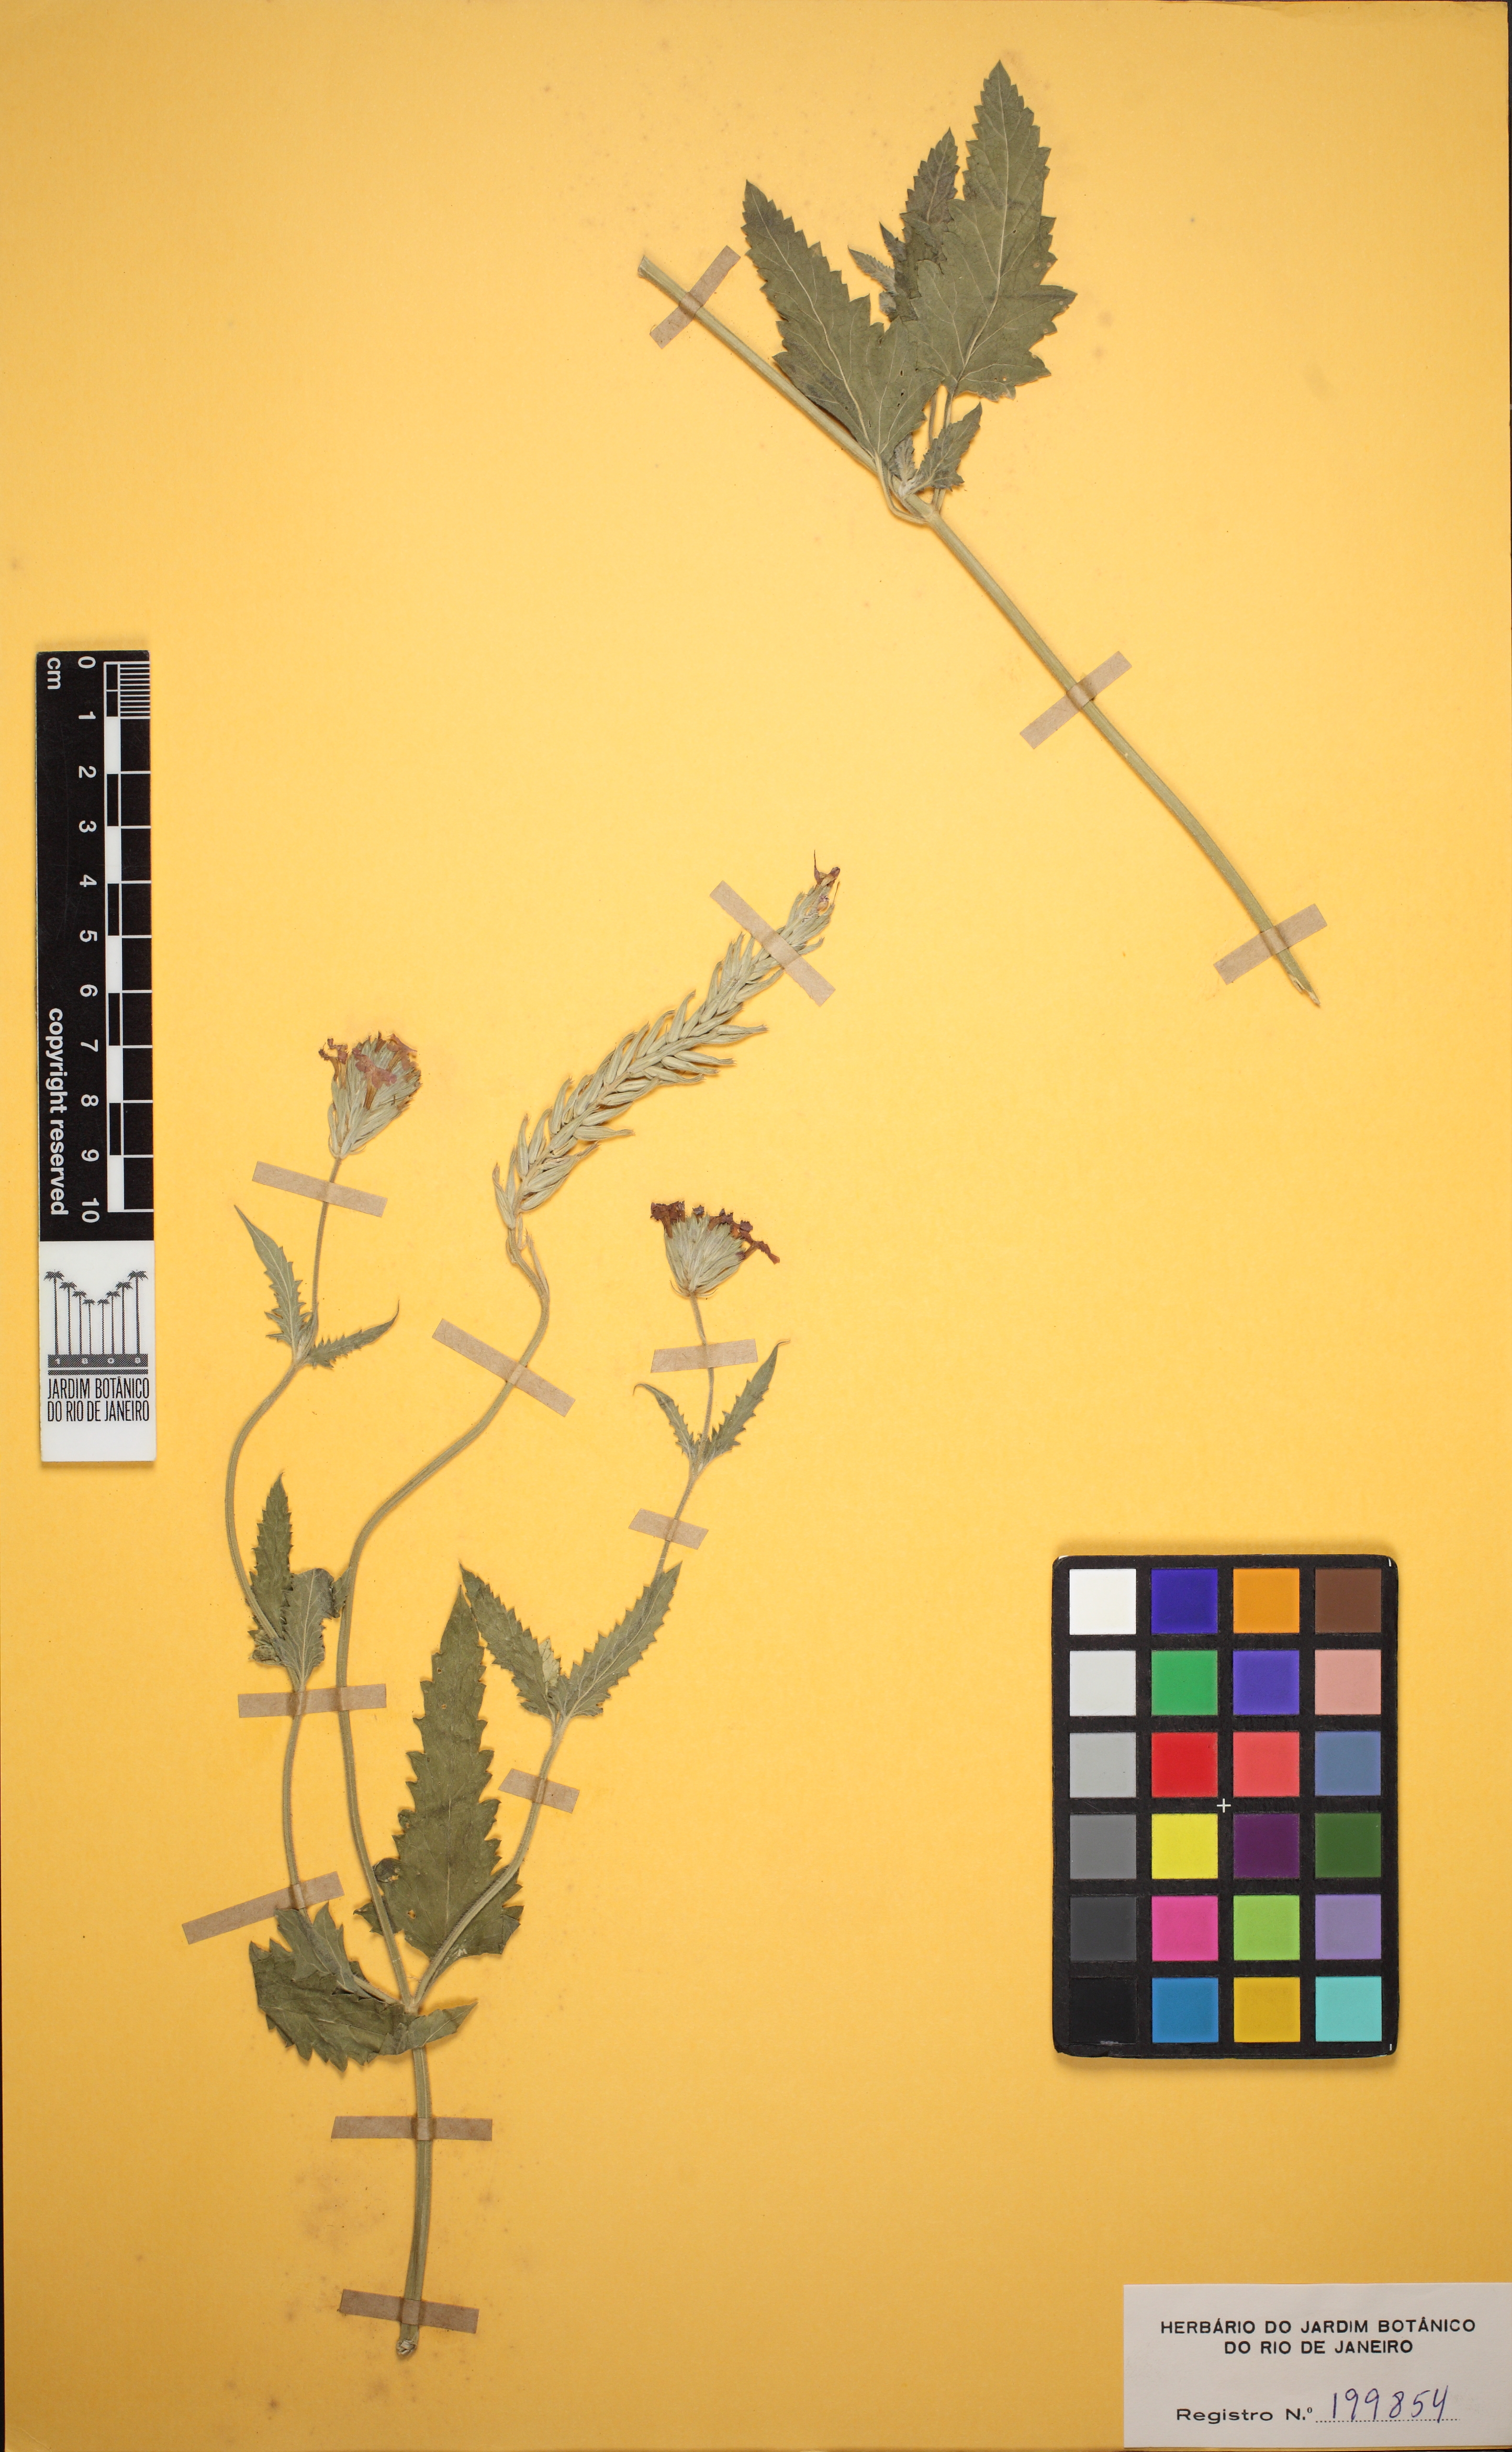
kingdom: Plantae
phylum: Tracheophyta
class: Magnoliopsida
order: Lamiales
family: Verbenaceae
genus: Verbena
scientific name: Verbena tweedieana
